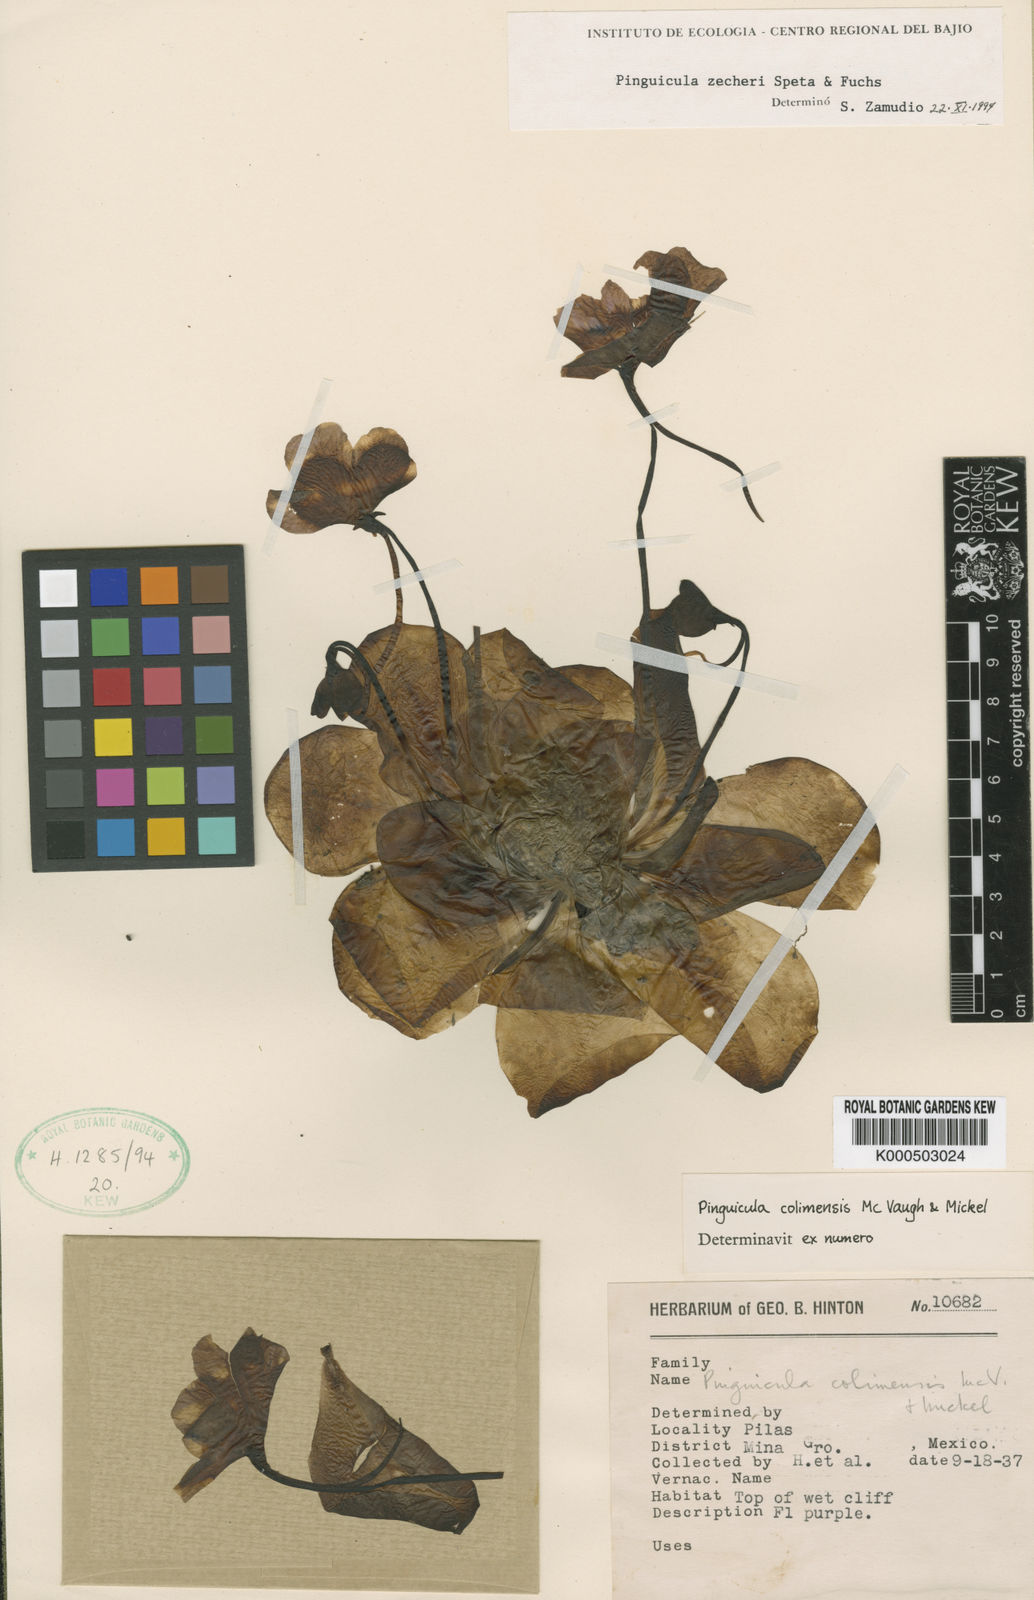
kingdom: Plantae
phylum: Tracheophyta
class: Magnoliopsida
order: Lamiales
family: Lentibulariaceae
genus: Pinguicula
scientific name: Pinguicula zecheri
